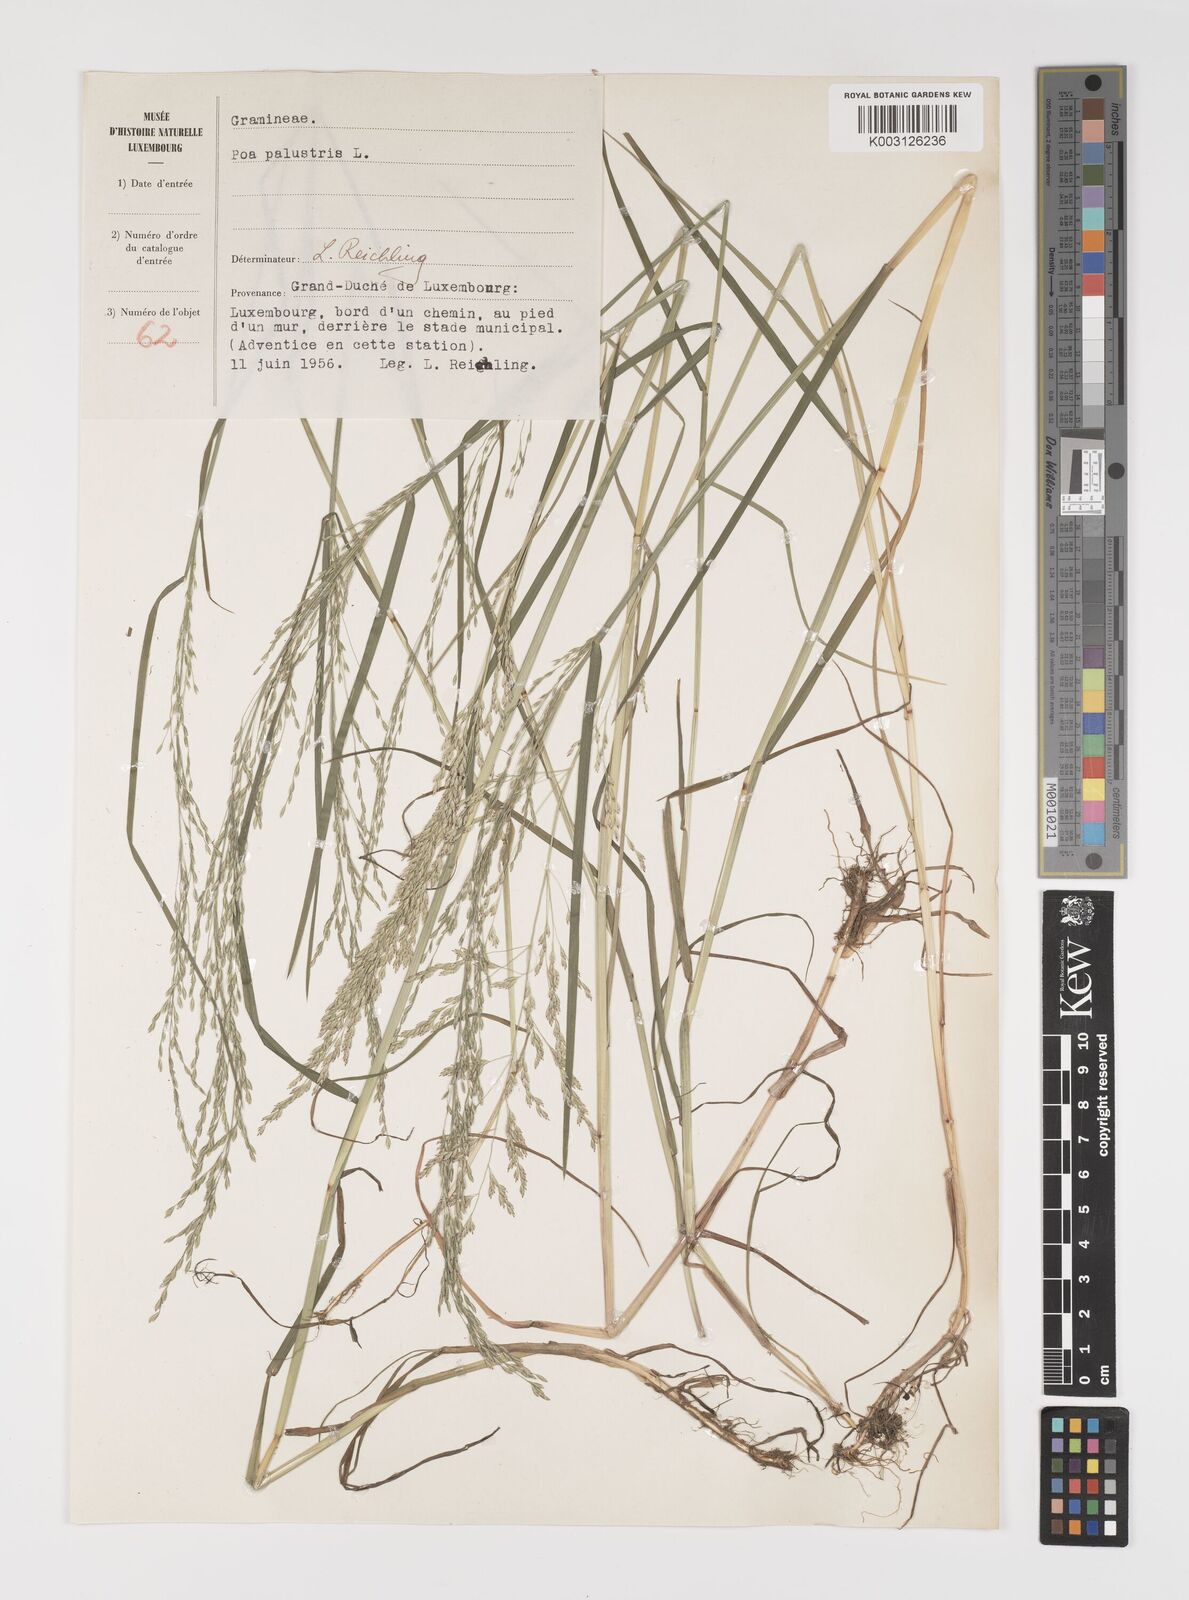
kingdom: Plantae
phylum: Tracheophyta
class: Liliopsida
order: Poales
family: Poaceae
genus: Poa
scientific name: Poa palustris
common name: Swamp meadow-grass
